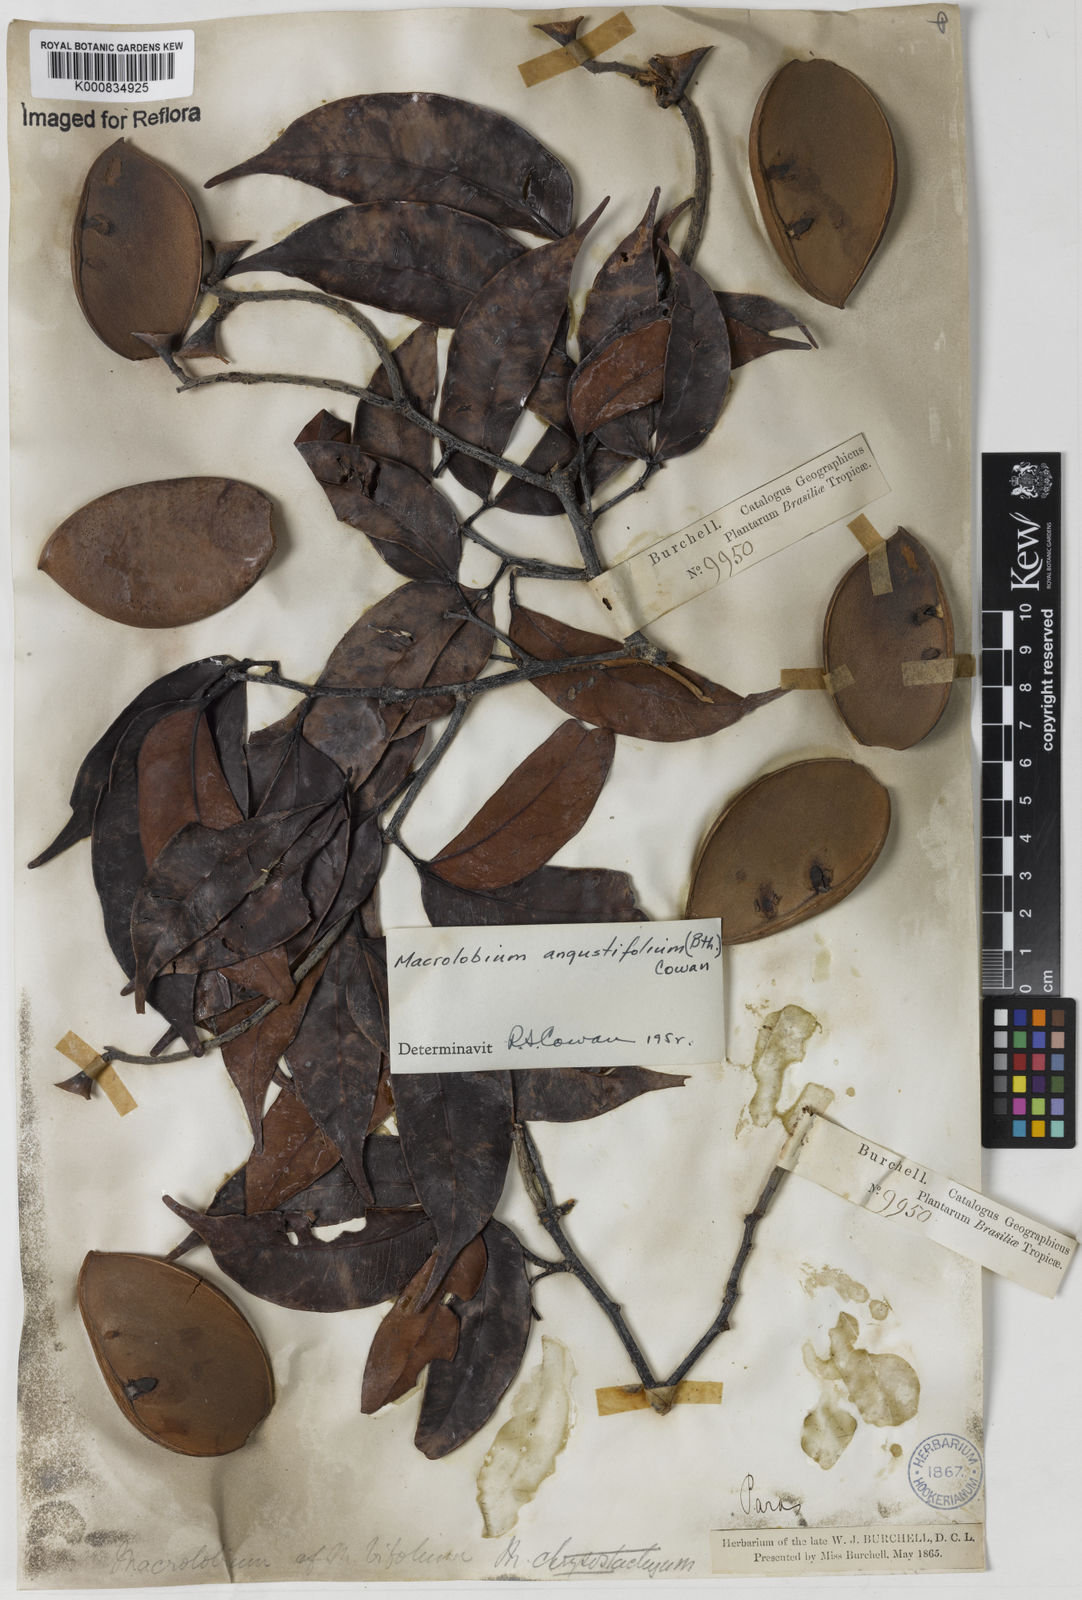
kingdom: Plantae
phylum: Tracheophyta
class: Magnoliopsida
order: Fabales
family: Fabaceae
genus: Macrolobium
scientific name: Macrolobium angustifolium
